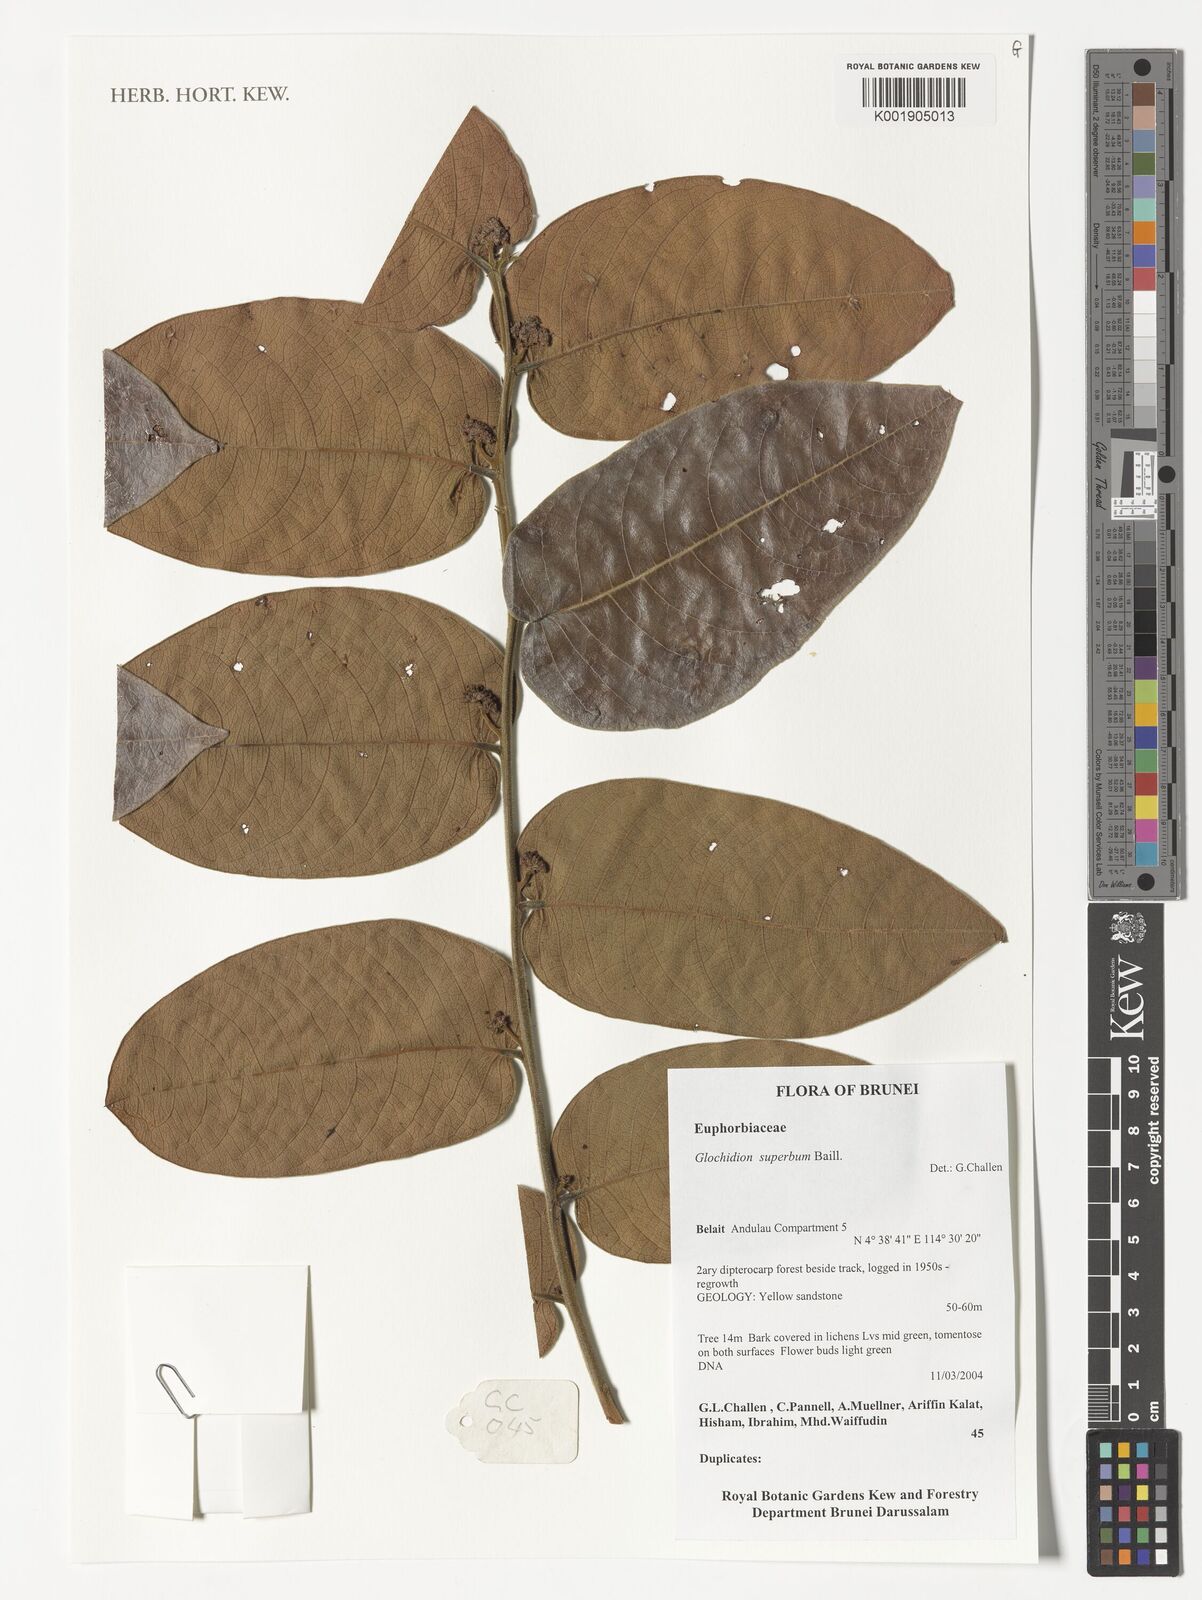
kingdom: Plantae
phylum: Tracheophyta
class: Magnoliopsida
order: Malpighiales
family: Phyllanthaceae
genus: Glochidion
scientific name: Glochidion
